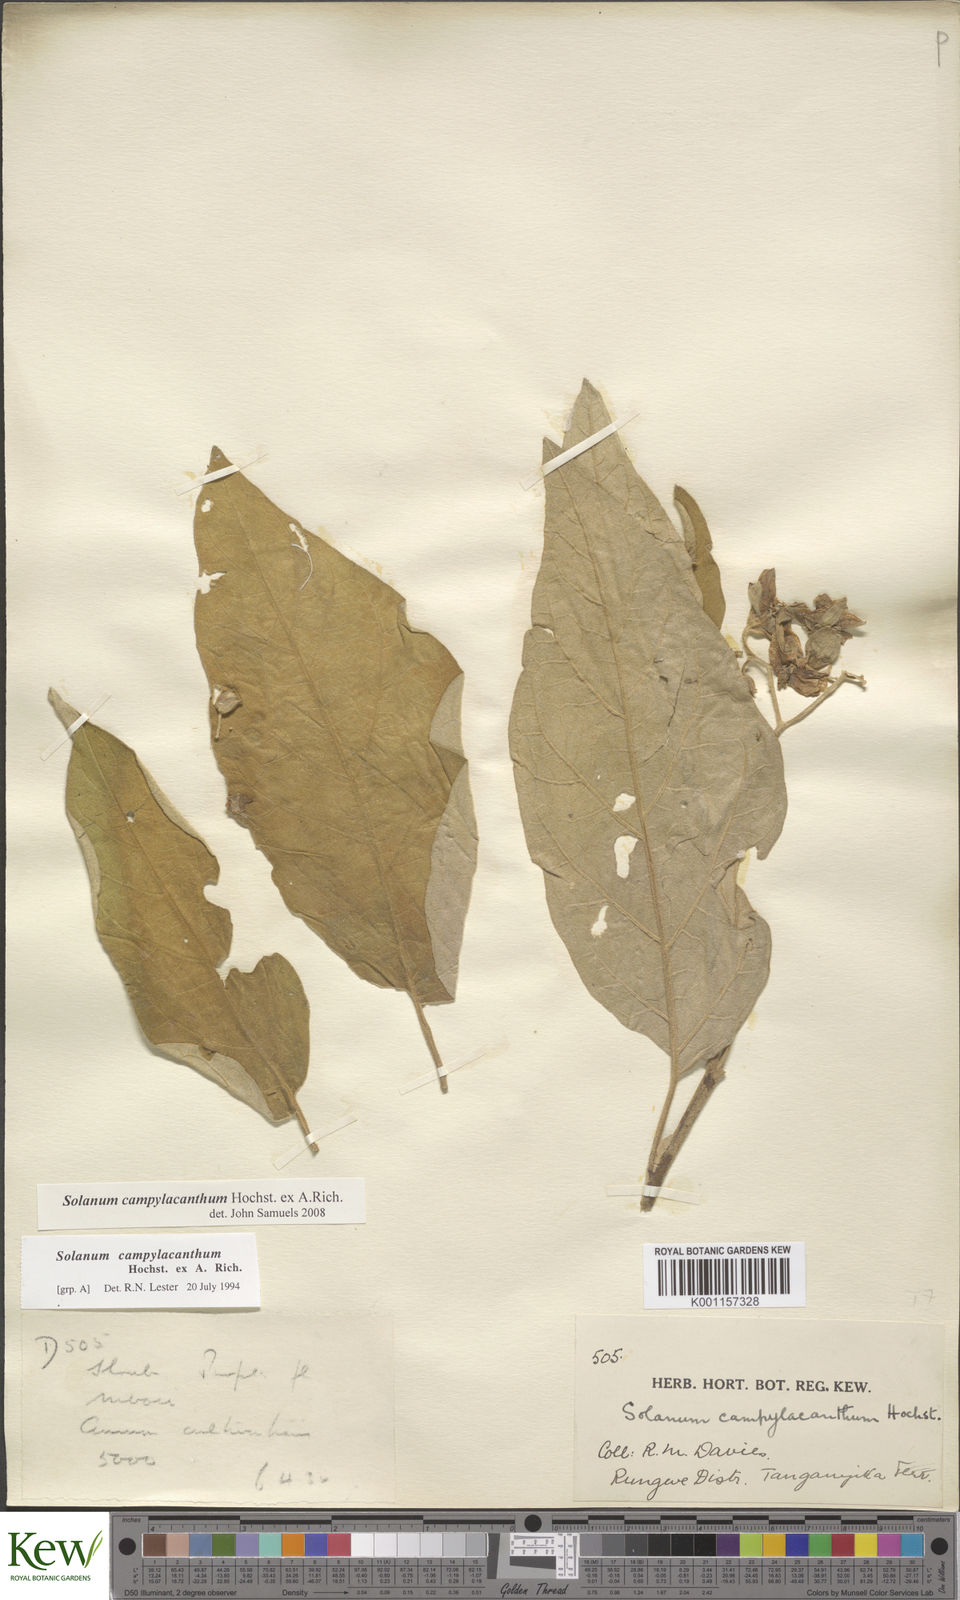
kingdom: Plantae
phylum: Tracheophyta
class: Magnoliopsida
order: Solanales
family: Solanaceae
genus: Solanum
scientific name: Solanum campylacanthum
